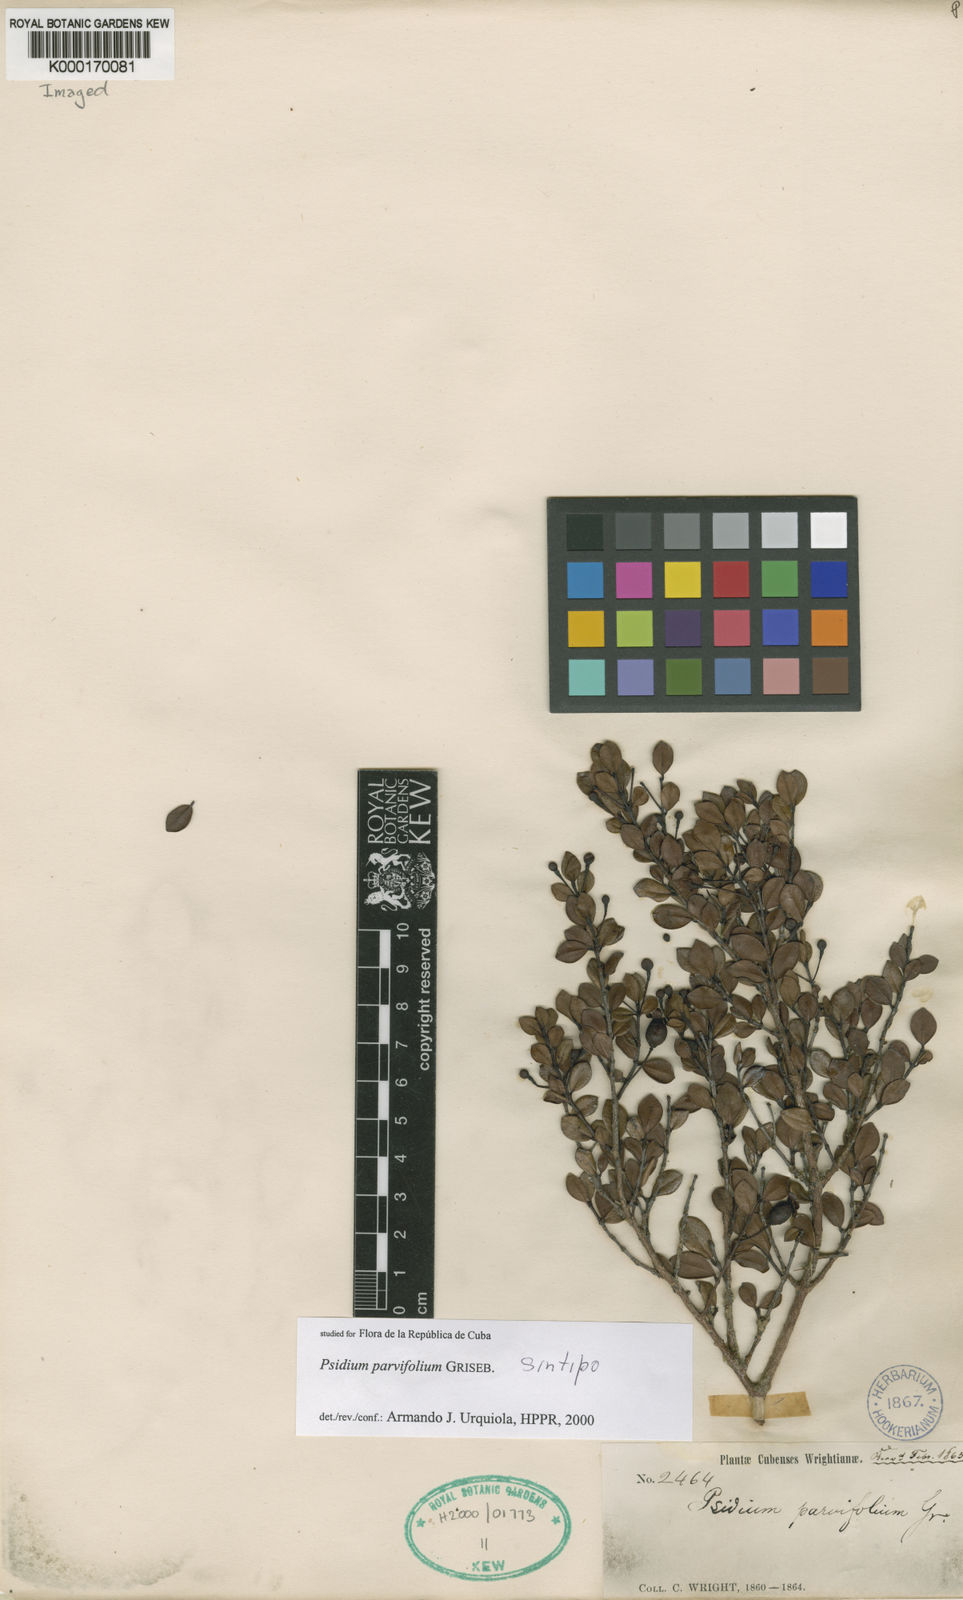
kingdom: Plantae
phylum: Tracheophyta
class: Magnoliopsida
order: Myrtales
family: Myrtaceae
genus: Psidium
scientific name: Psidium parvifolium
